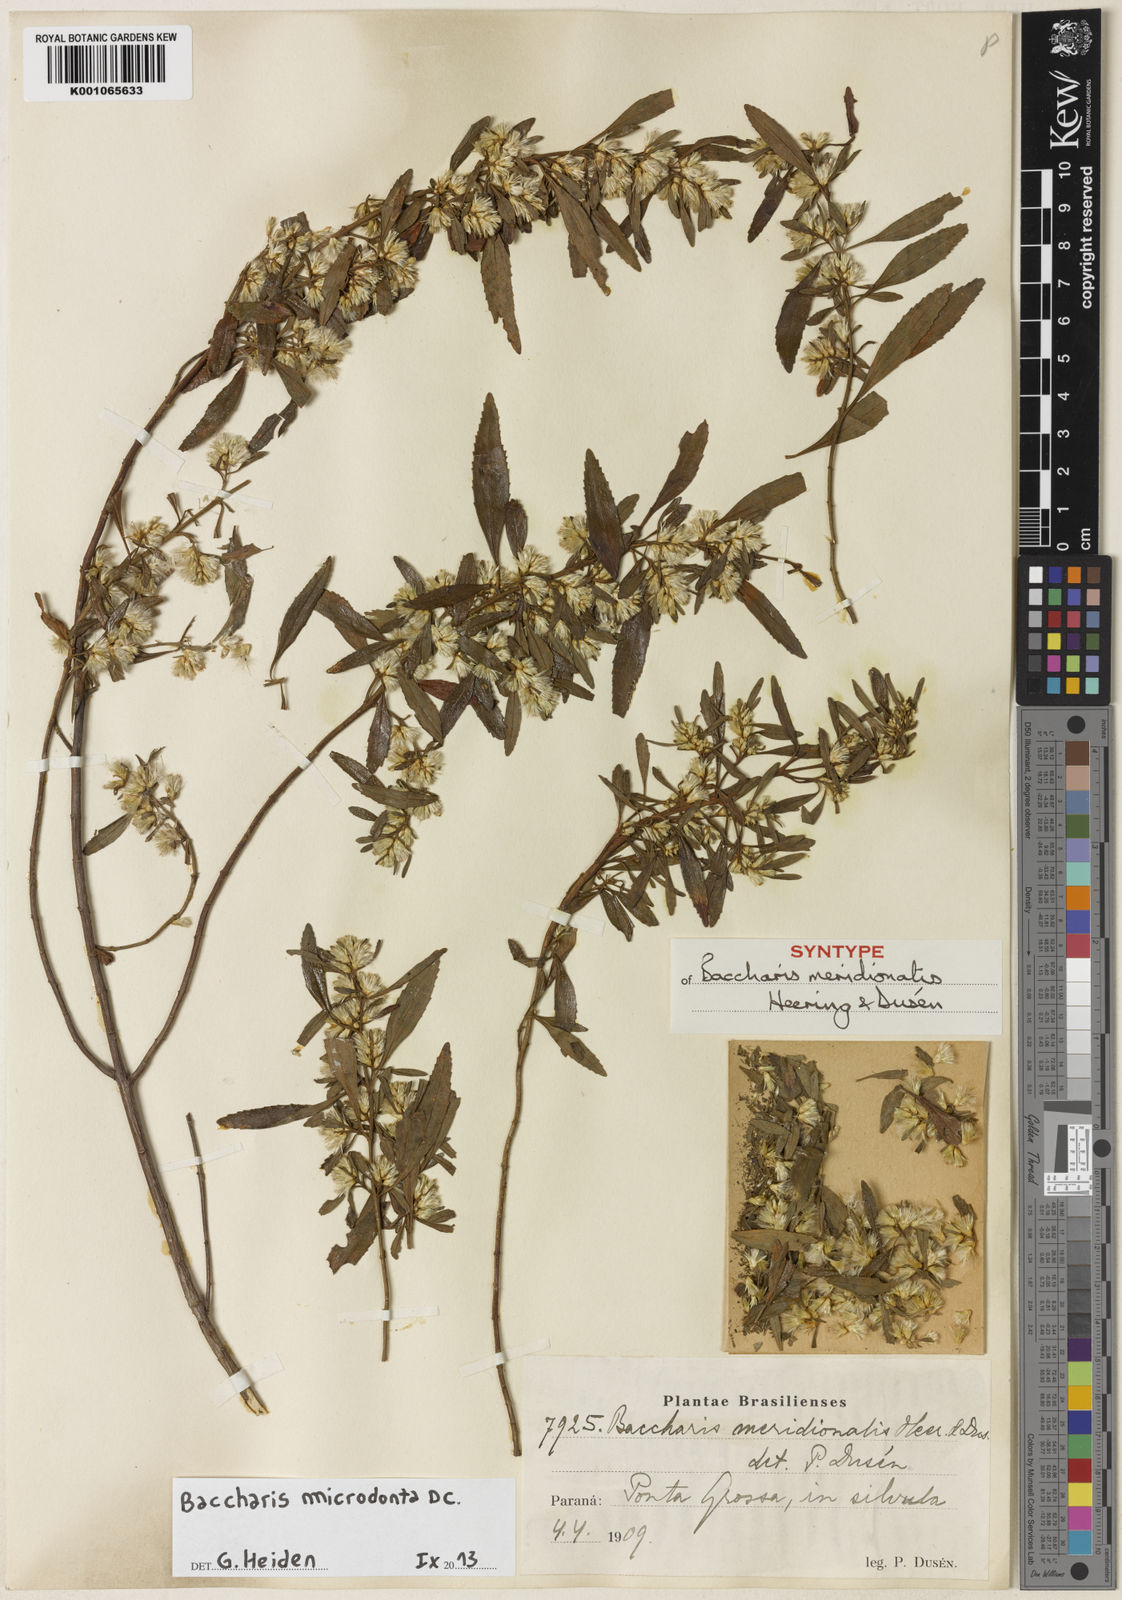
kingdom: Plantae
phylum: Tracheophyta
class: Magnoliopsida
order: Asterales
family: Asteraceae
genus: Baccharis
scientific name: Baccharis microdonta
